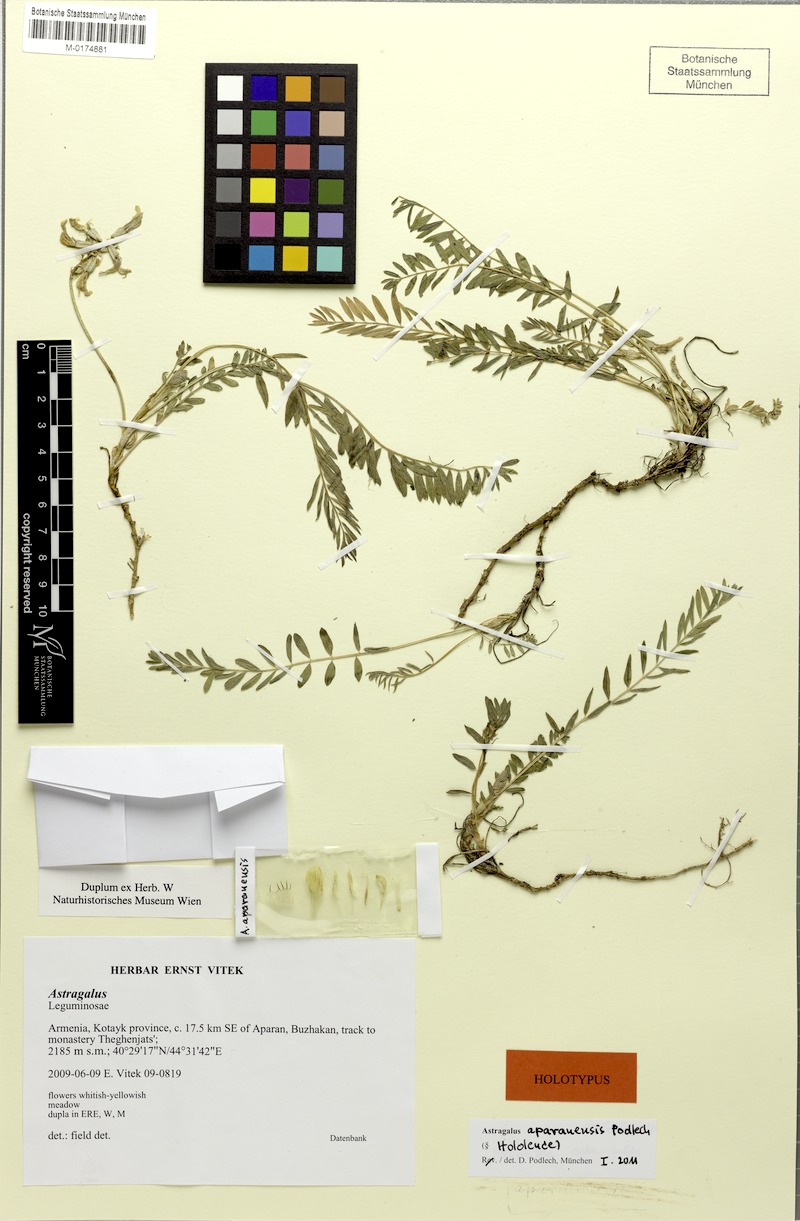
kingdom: Plantae
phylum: Tracheophyta
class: Magnoliopsida
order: Fabales
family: Fabaceae
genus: Astragalus
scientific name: Astragalus aparanensis
